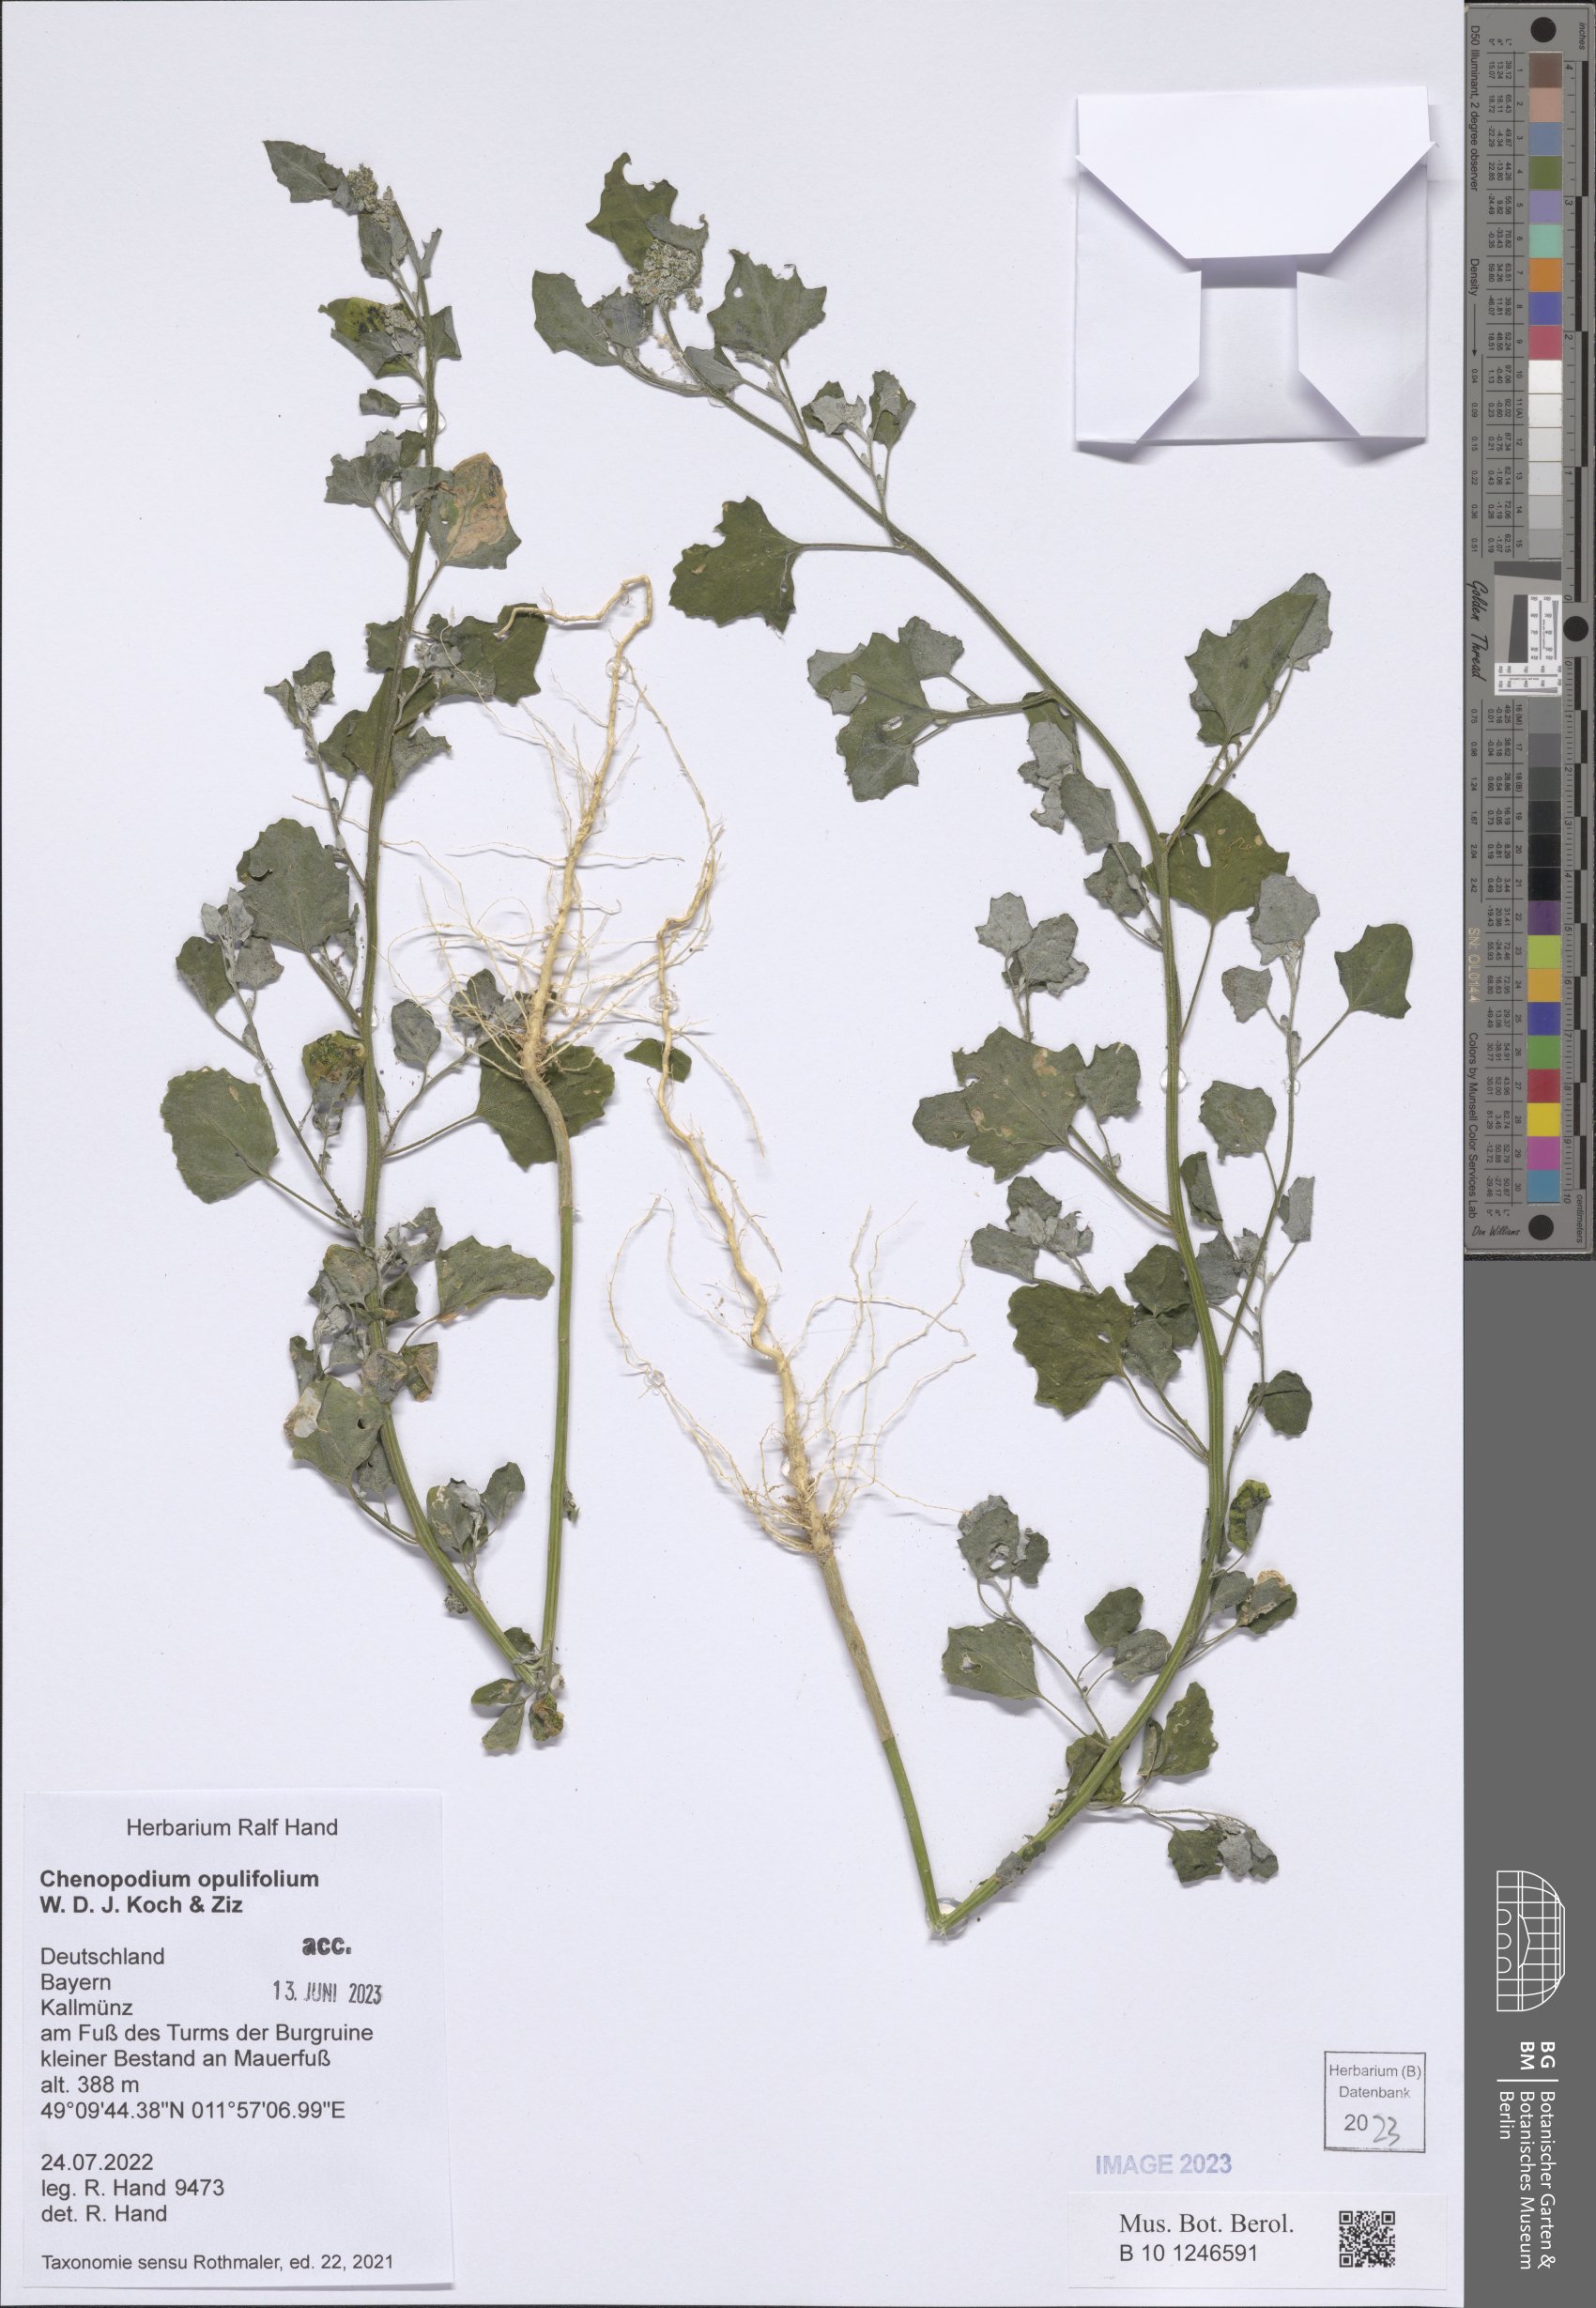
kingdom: Plantae
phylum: Tracheophyta
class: Magnoliopsida
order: Caryophyllales
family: Amaranthaceae
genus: Chenopodium
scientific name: Chenopodium opulifolium
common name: Grey goosefoot
